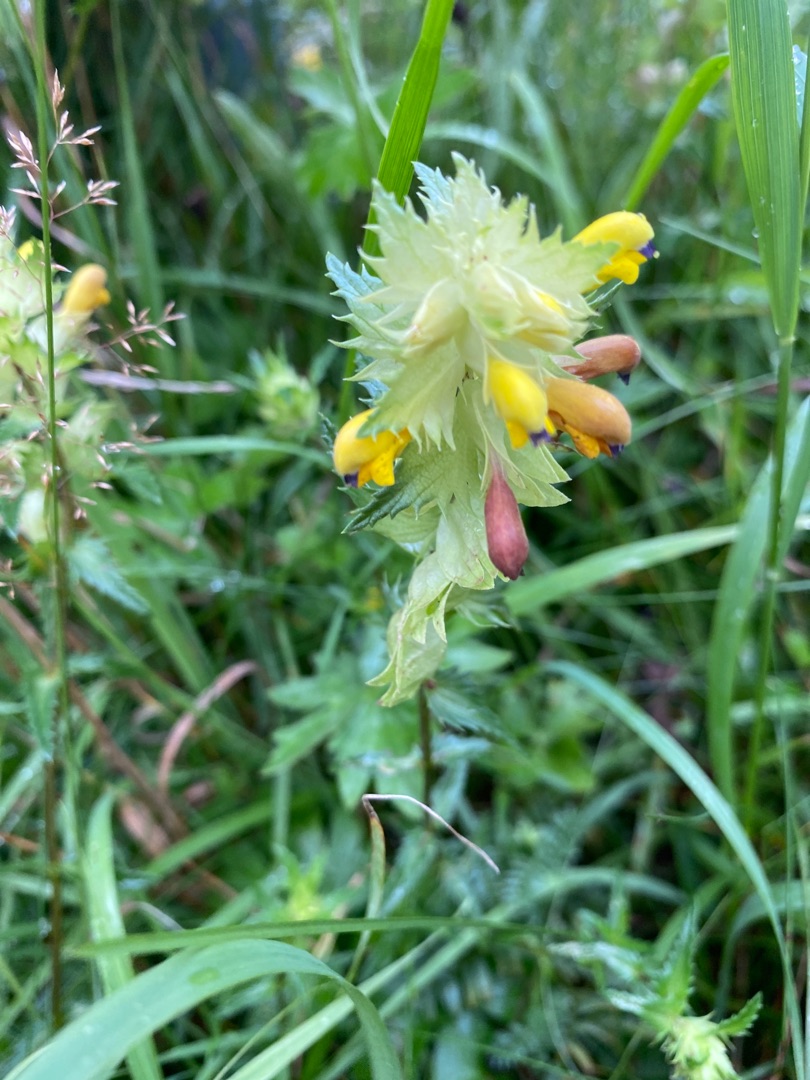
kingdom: Plantae
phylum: Tracheophyta
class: Magnoliopsida
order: Lamiales
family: Orobanchaceae
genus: Rhinanthus
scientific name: Rhinanthus
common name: Stor skjaller
